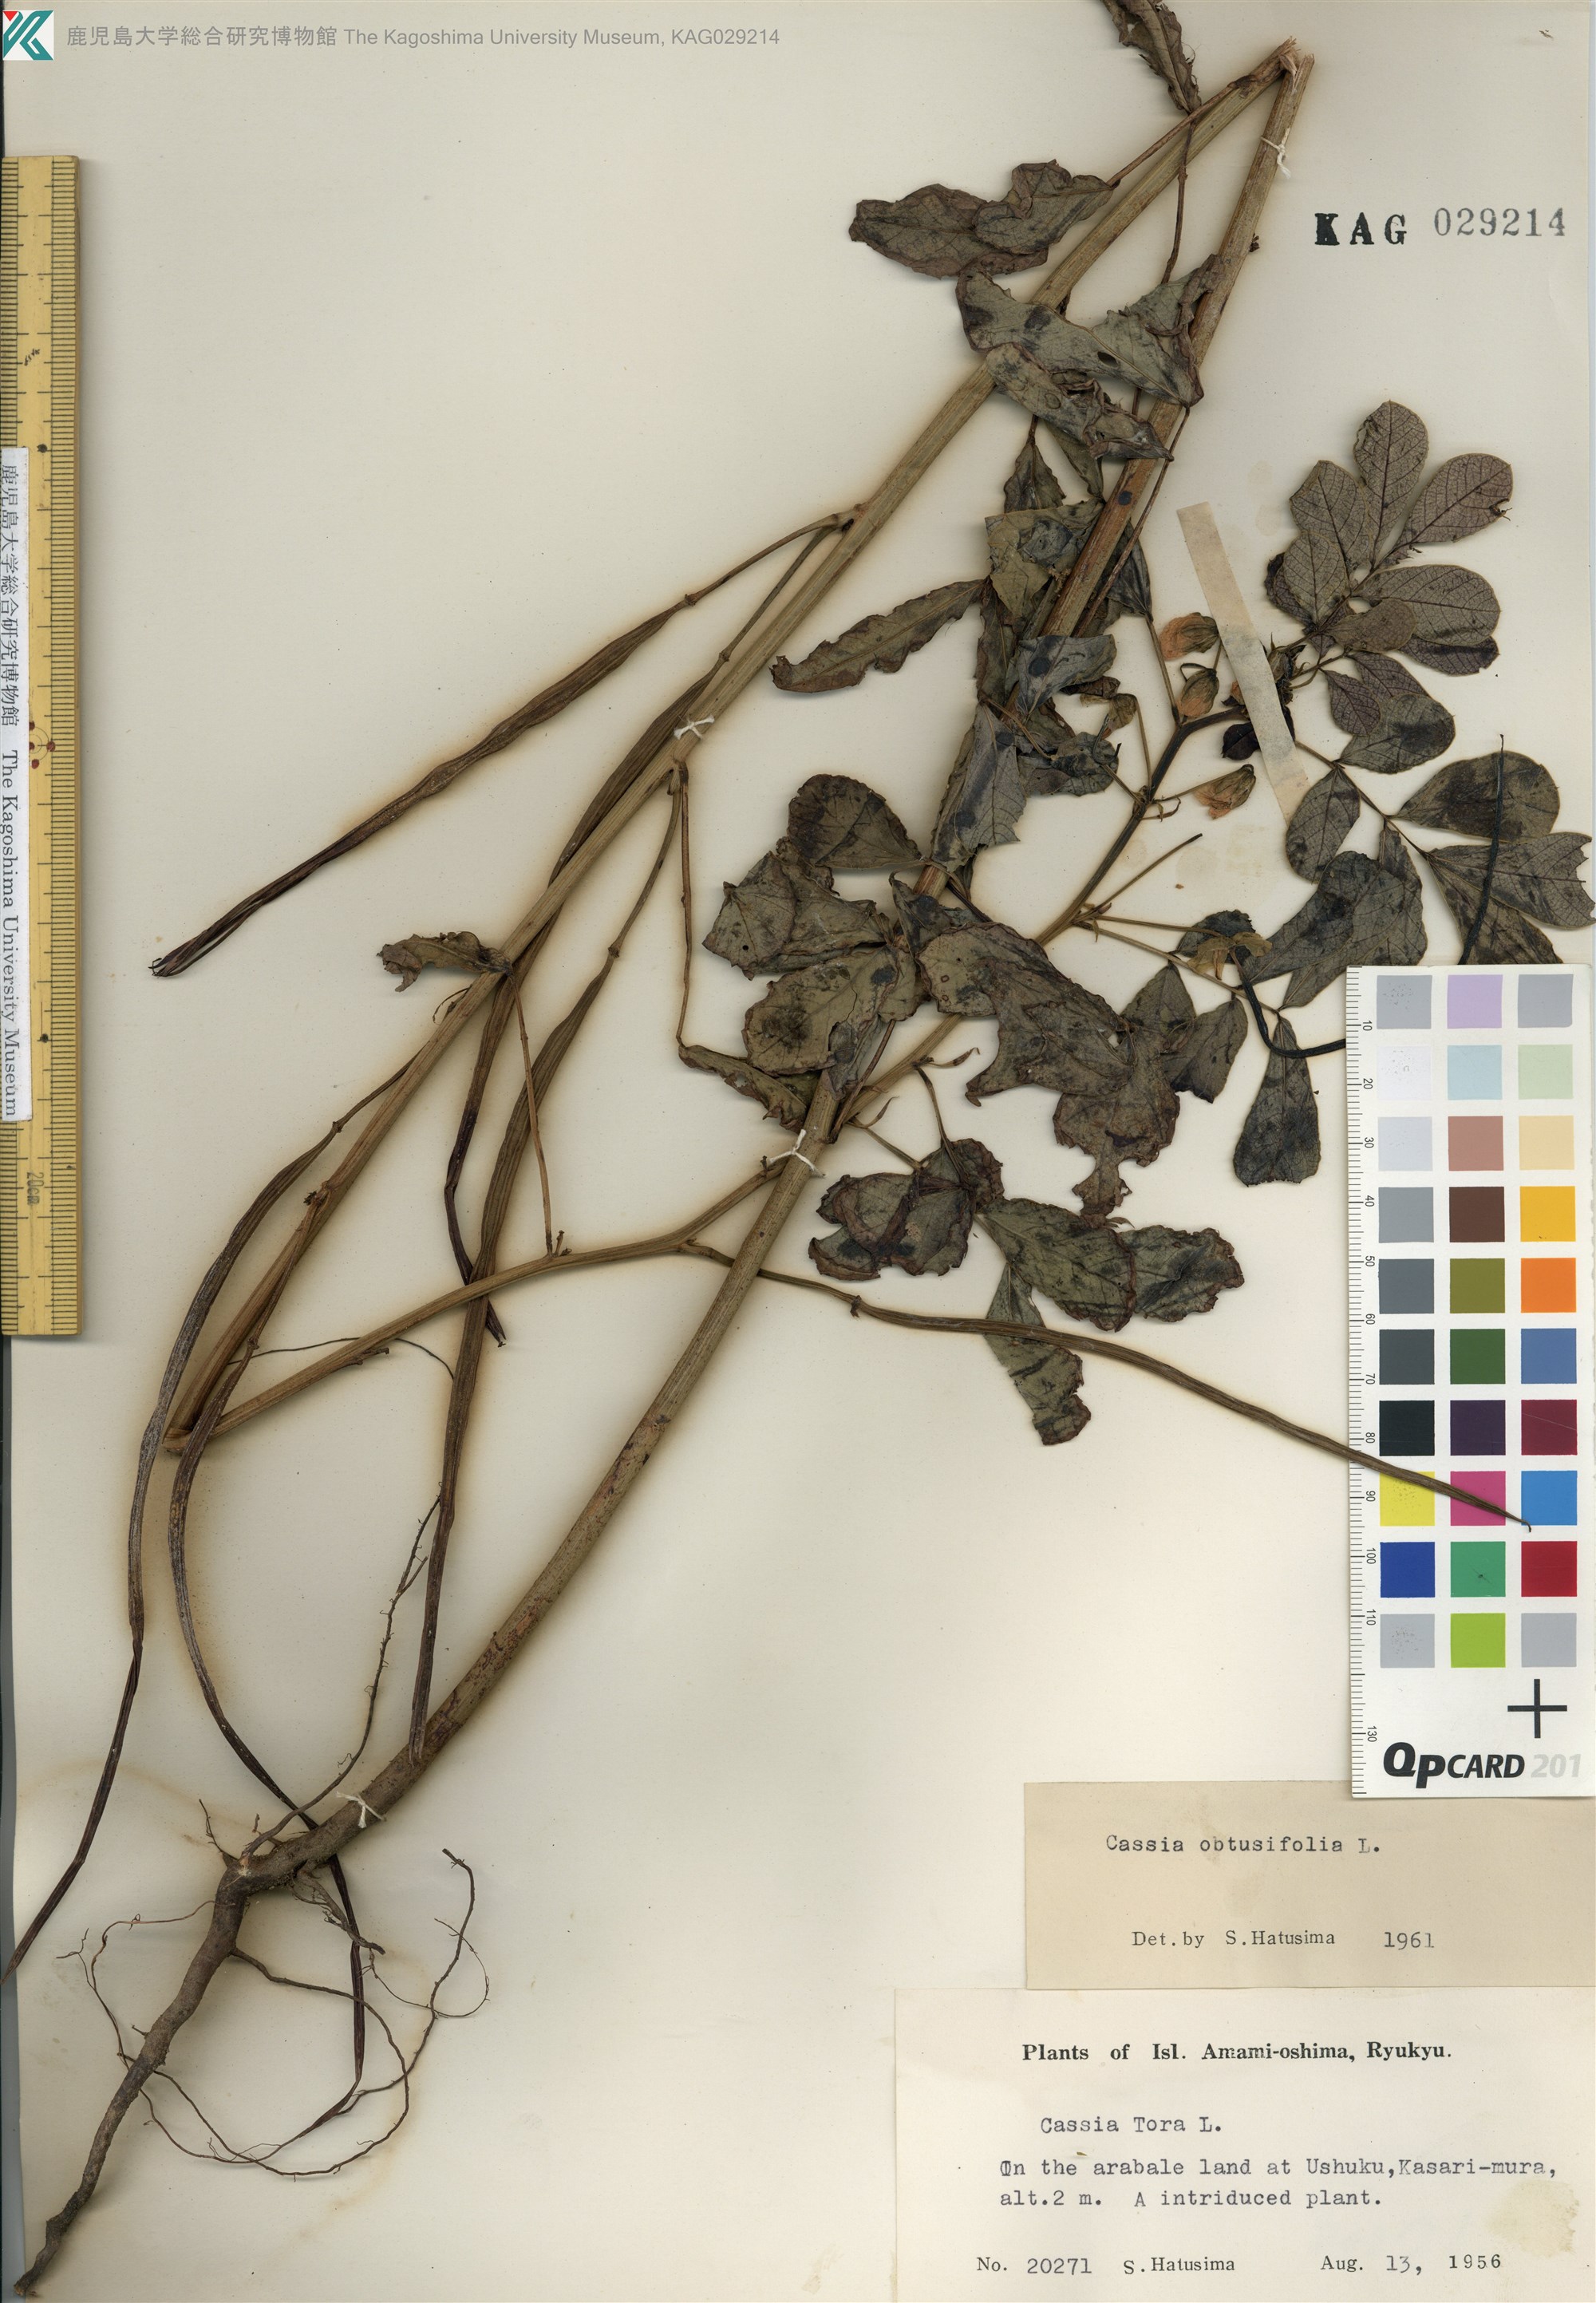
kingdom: Plantae
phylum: Tracheophyta
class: Magnoliopsida
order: Fabales
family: Fabaceae
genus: Senna
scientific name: Senna obtusifolia
